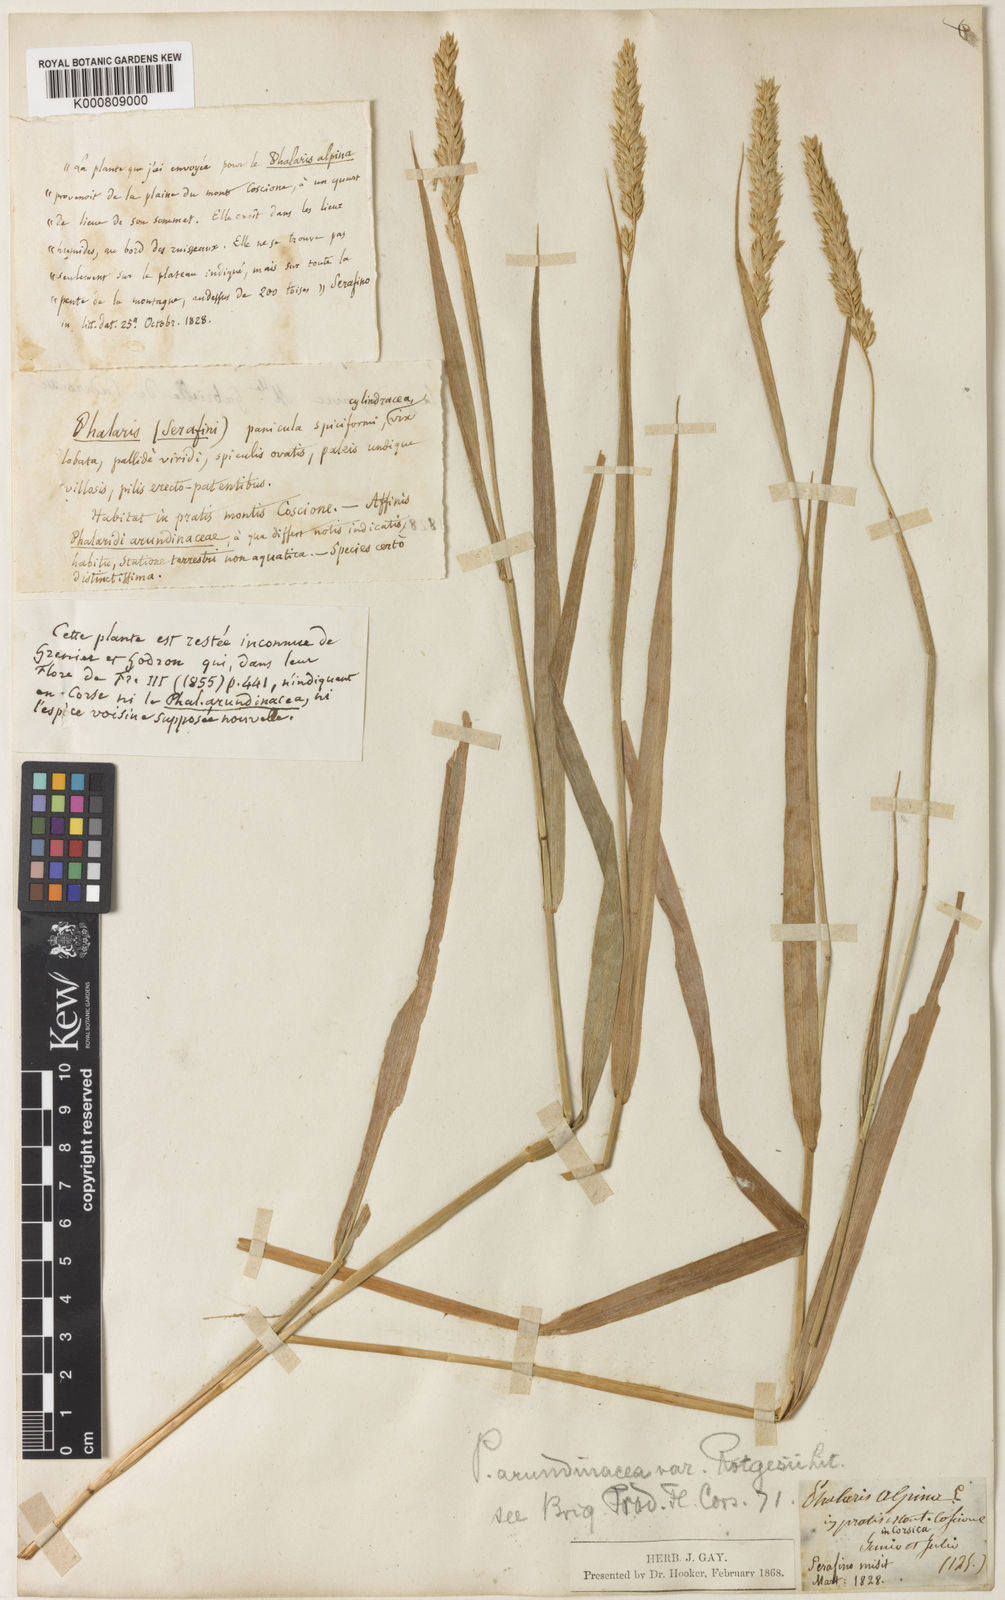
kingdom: Plantae
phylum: Tracheophyta
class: Liliopsida
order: Poales
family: Poaceae
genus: Phalaris
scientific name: Phalaris arundinacea
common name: Reed canary-grass
